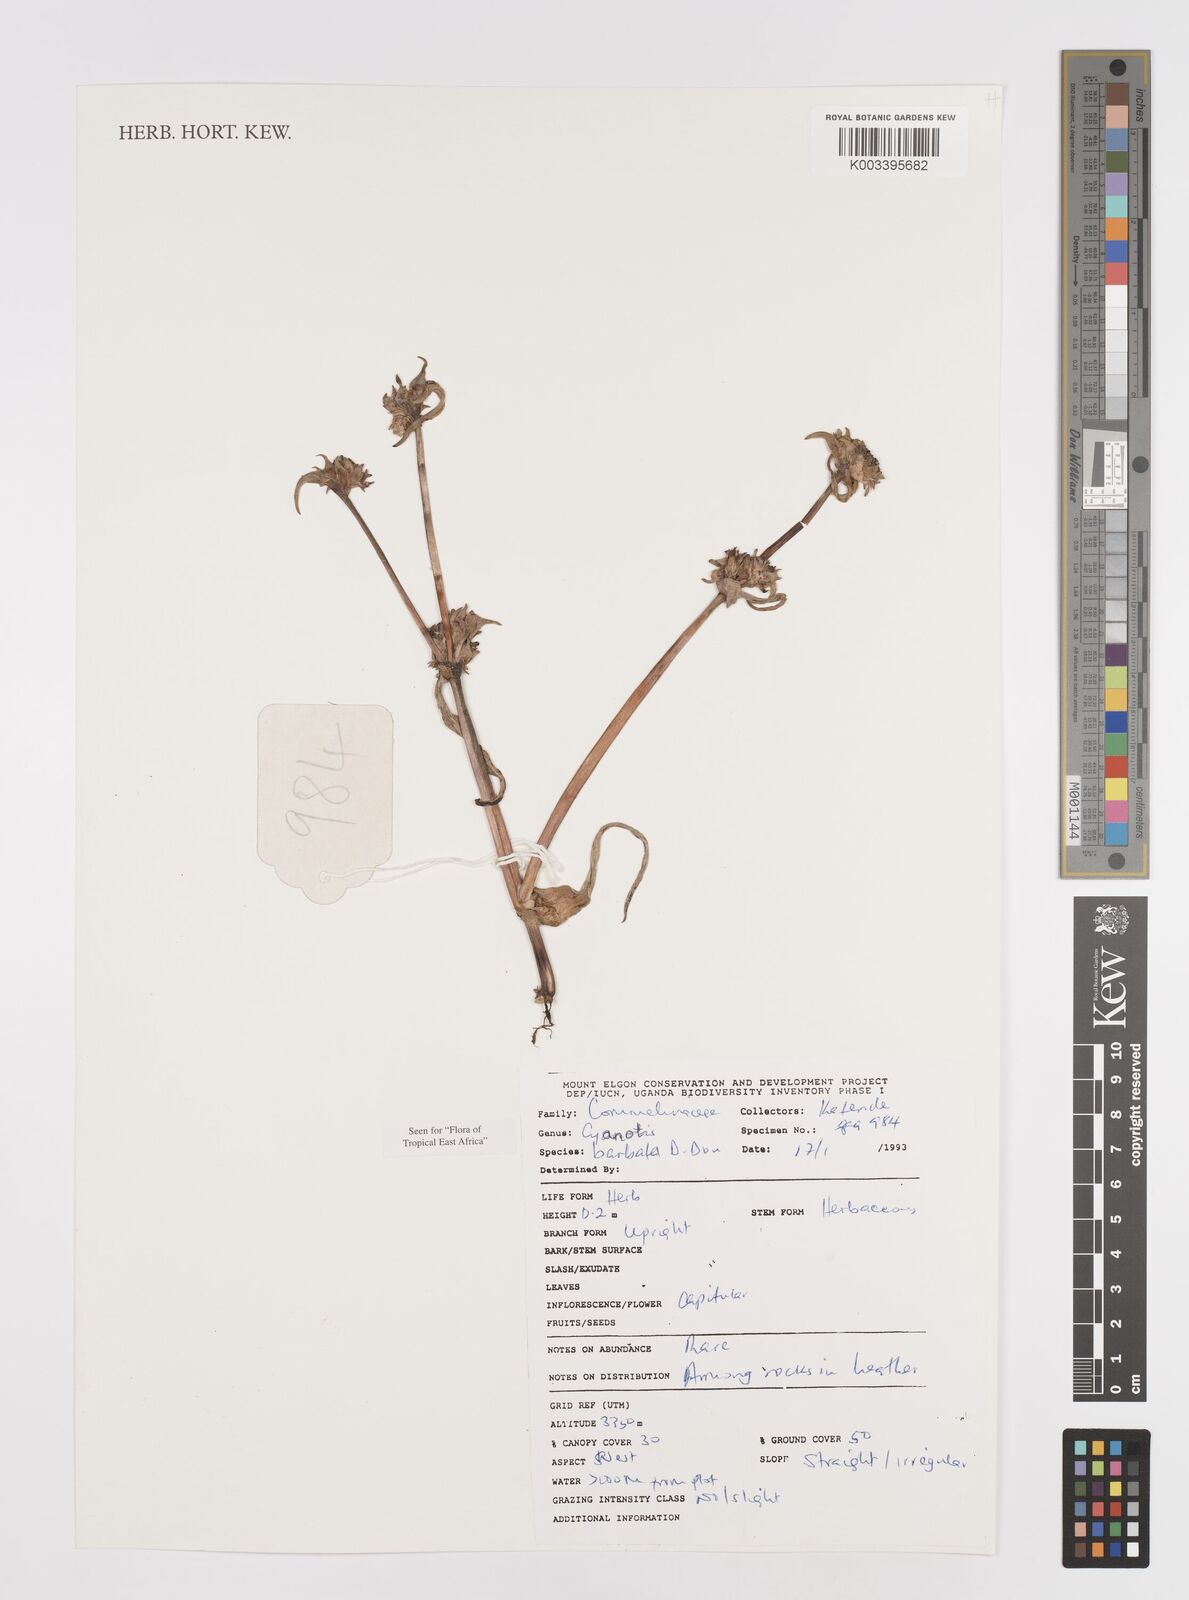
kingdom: Plantae
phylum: Tracheophyta
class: Liliopsida
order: Commelinales
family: Commelinaceae
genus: Cyanotis
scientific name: Cyanotis vaga
